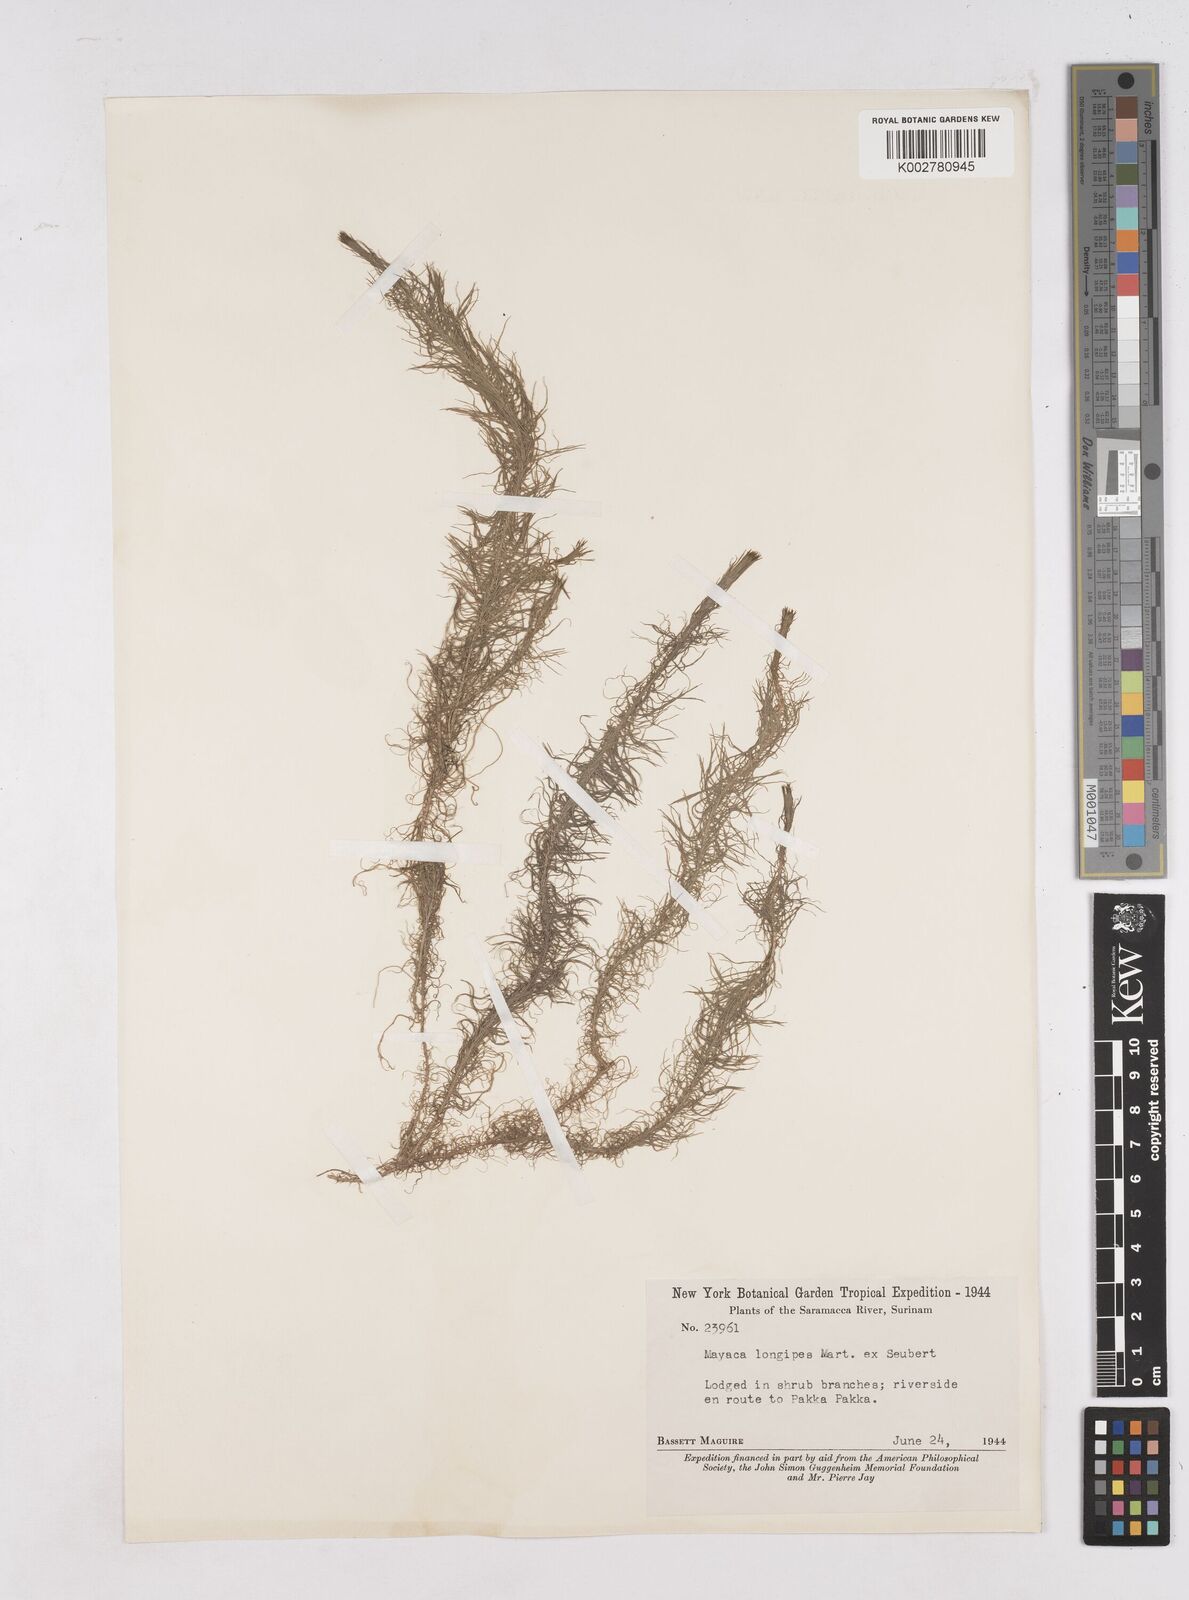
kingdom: Plantae
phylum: Tracheophyta
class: Liliopsida
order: Poales
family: Mayacaceae
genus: Mayaca
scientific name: Mayaca fluviatilis
